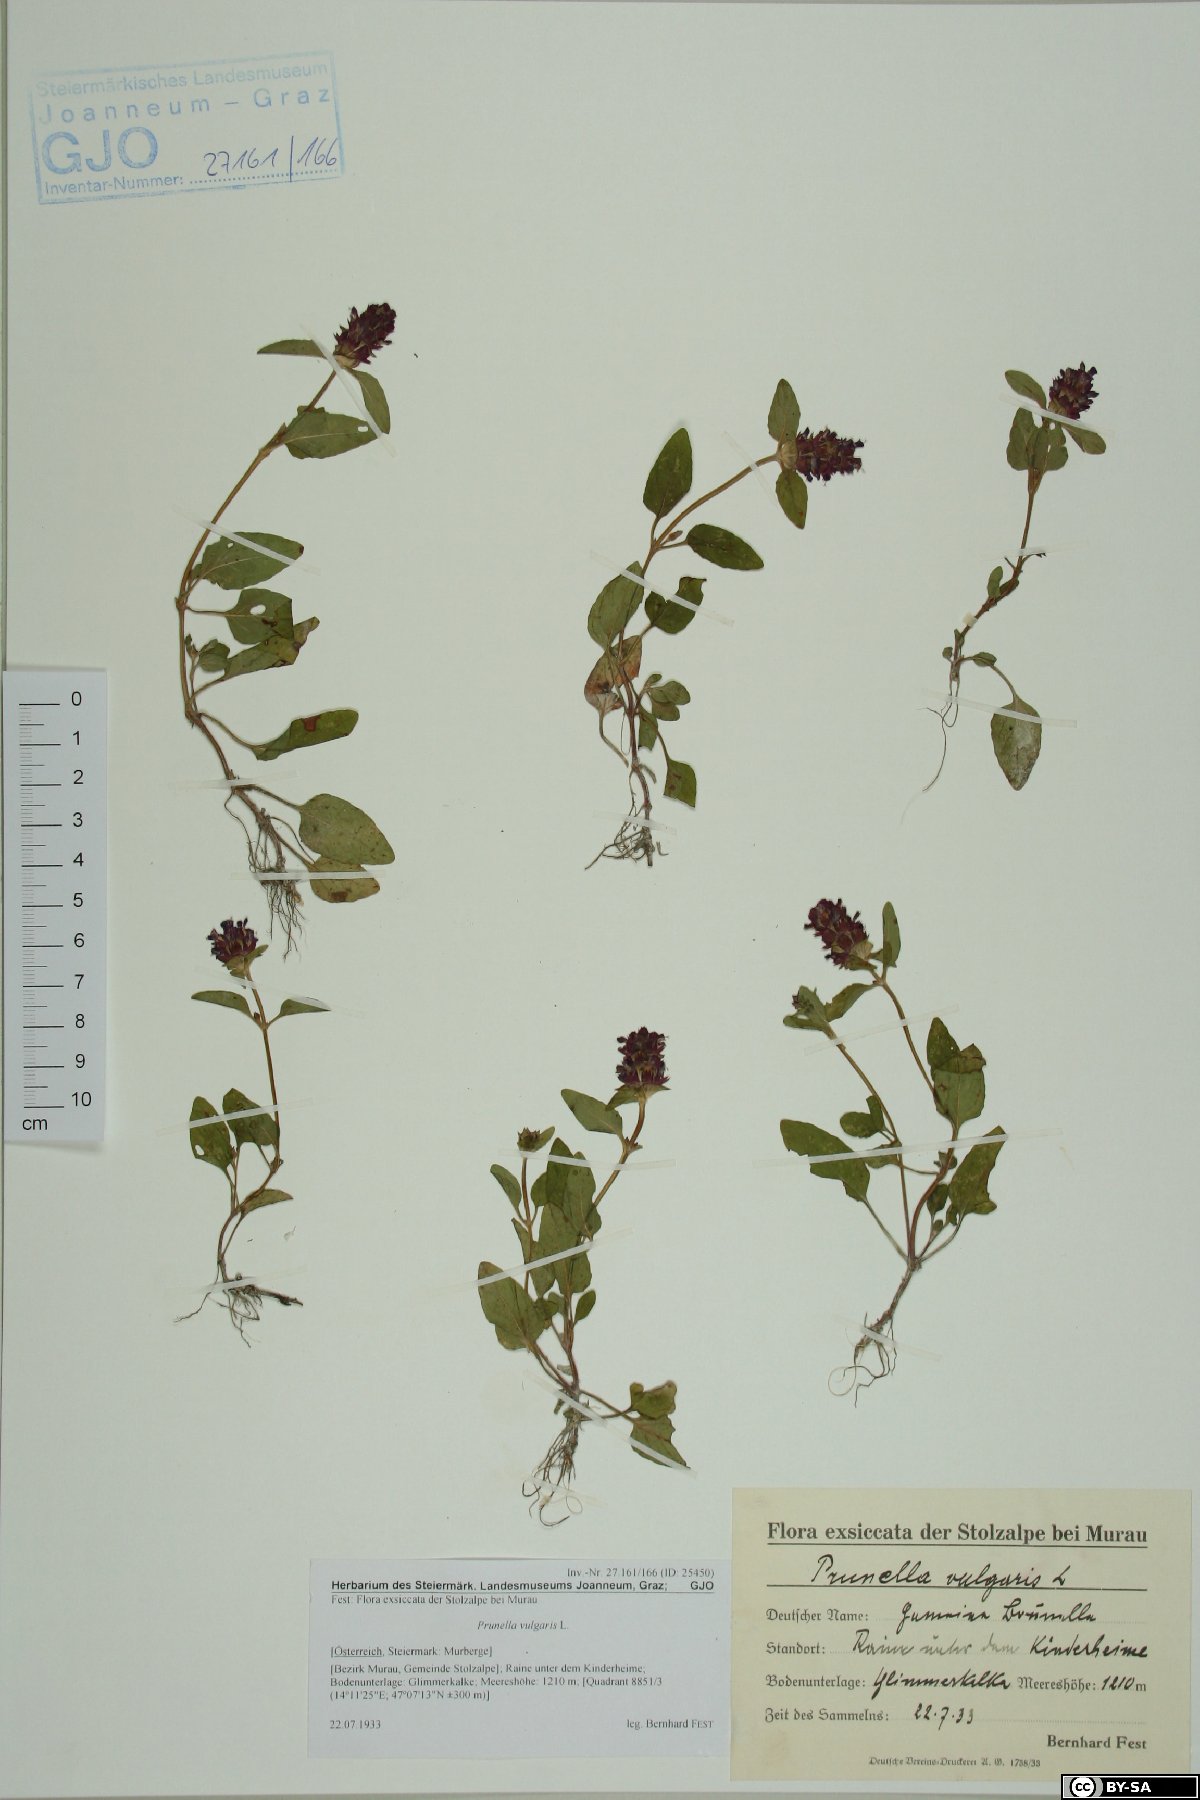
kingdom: Plantae
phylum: Tracheophyta
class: Magnoliopsida
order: Lamiales
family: Lamiaceae
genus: Prunella
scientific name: Prunella vulgaris
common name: Heal-all
